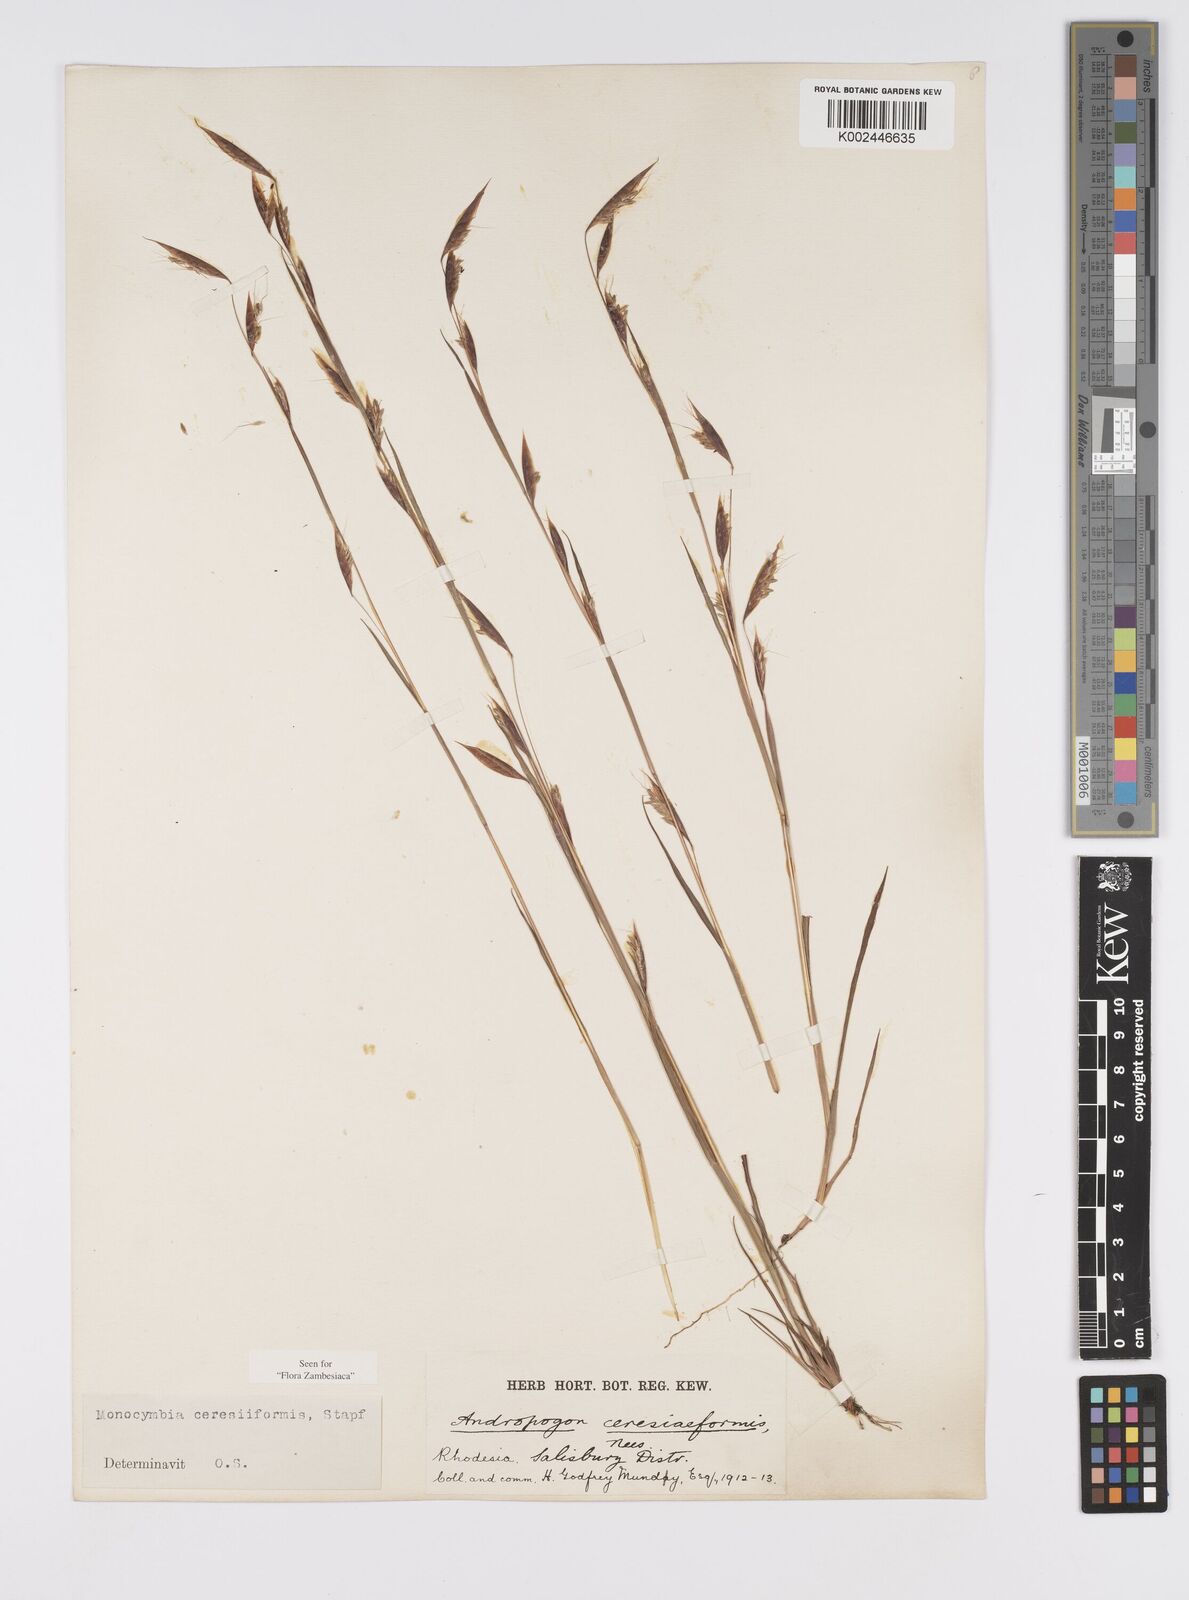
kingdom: Plantae
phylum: Tracheophyta
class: Liliopsida
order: Poales
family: Poaceae
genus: Monocymbium
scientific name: Monocymbium ceresiiforme
